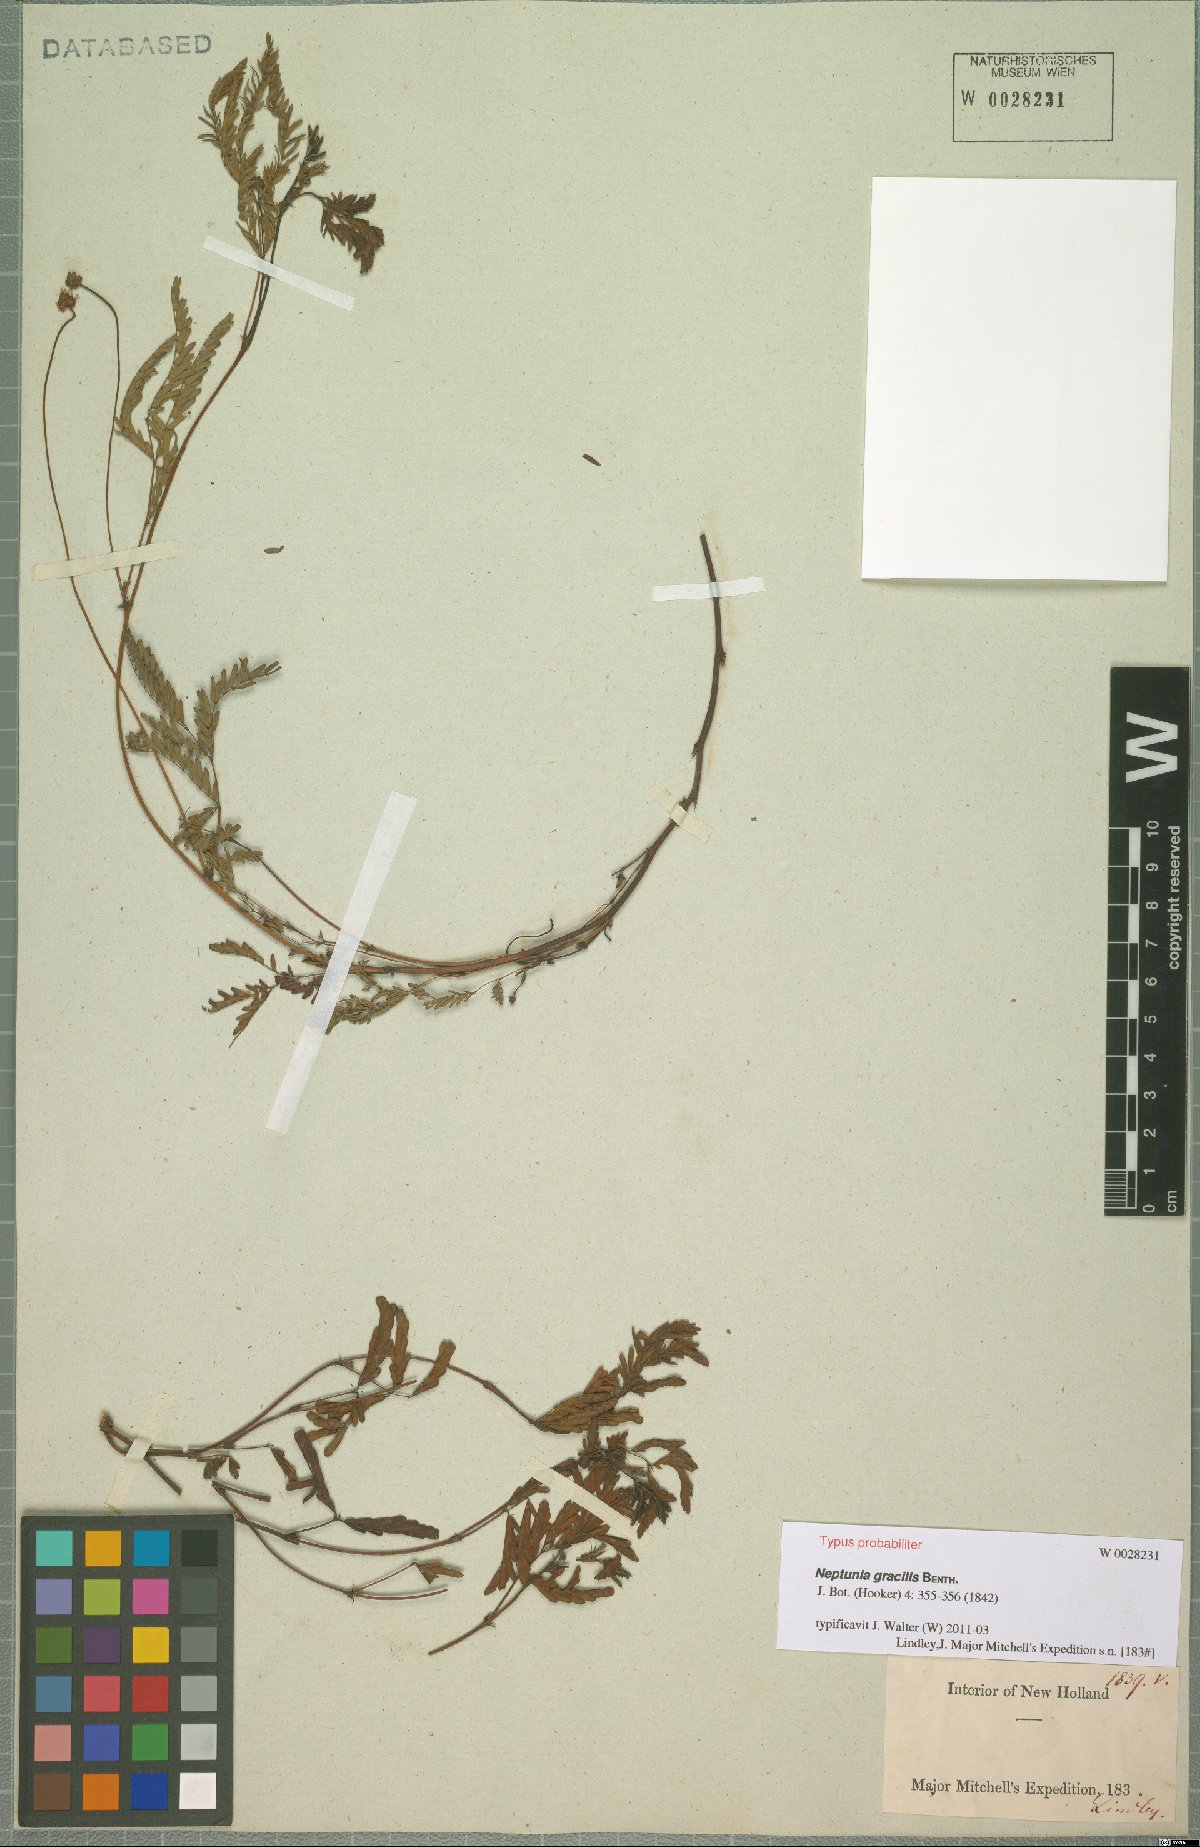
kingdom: Plantae
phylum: Tracheophyta
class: Magnoliopsida
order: Fabales
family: Fabaceae
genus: Neptunia
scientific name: Neptunia gracilis
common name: Sensitive-plant
